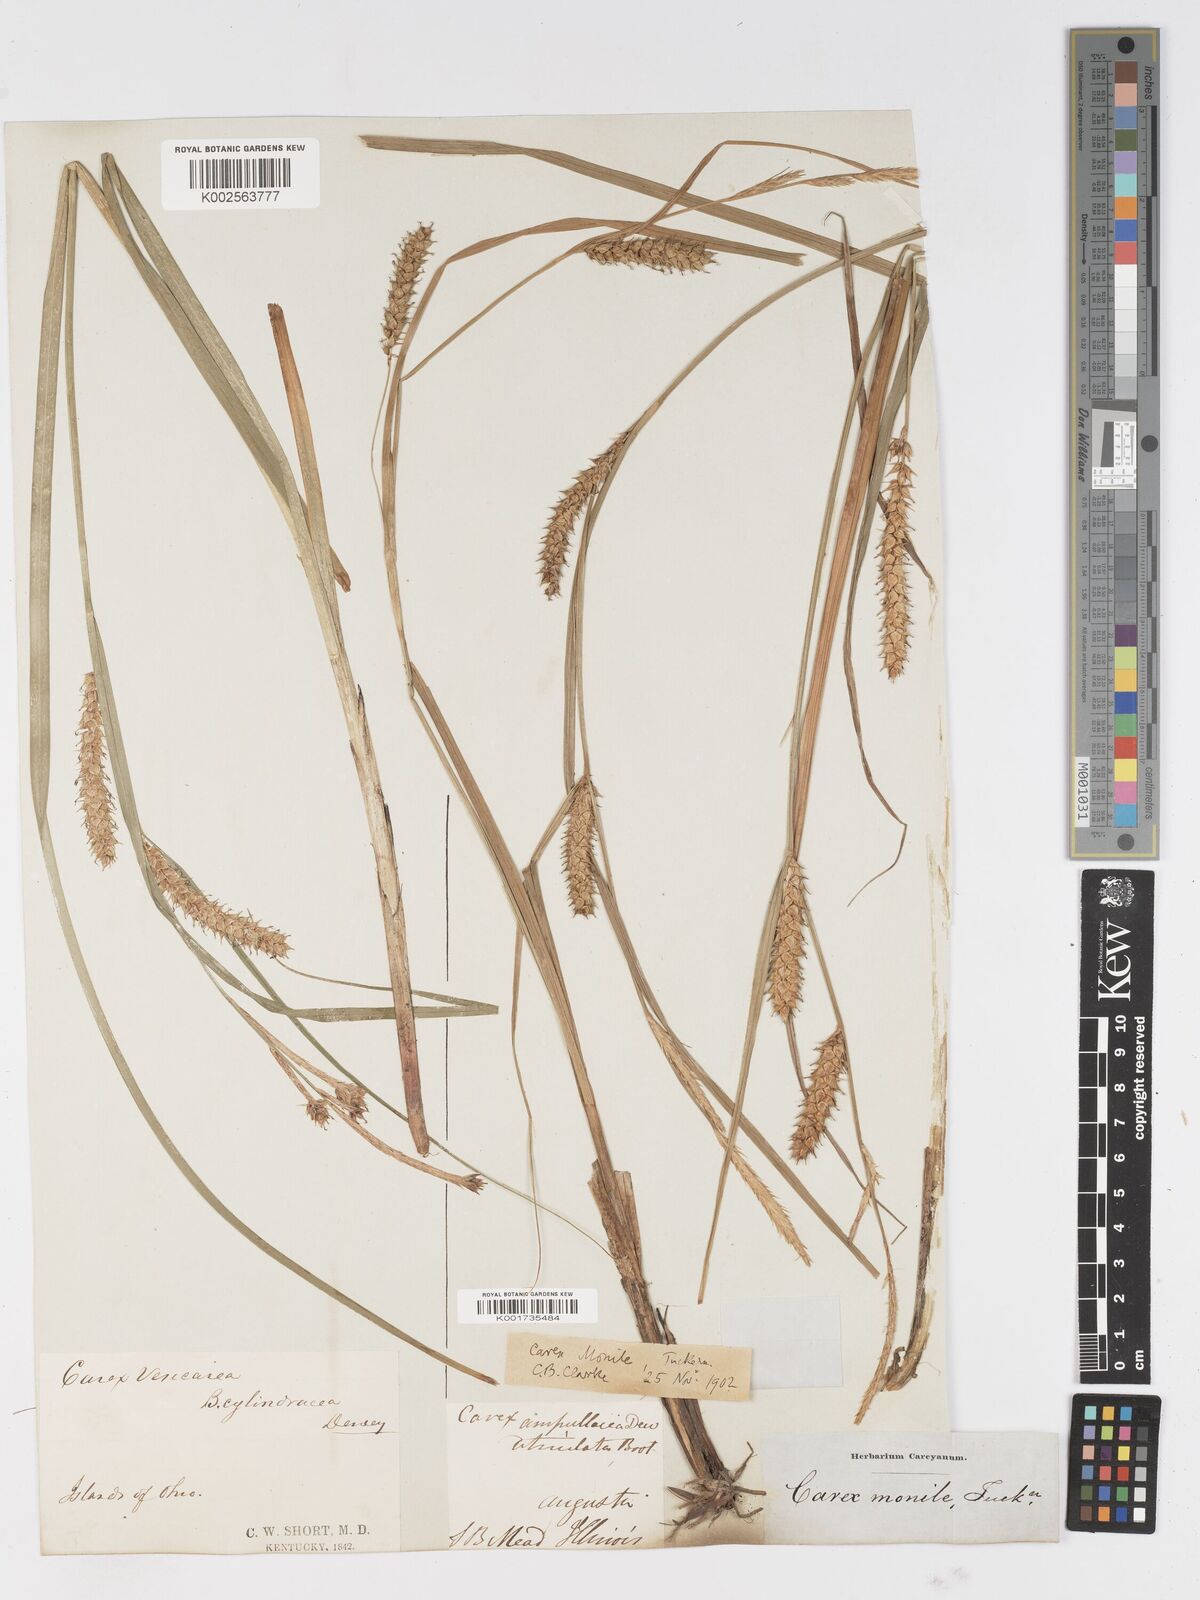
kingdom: Plantae
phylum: Tracheophyta
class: Liliopsida
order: Poales
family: Cyperaceae
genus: Carex
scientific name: Carex vesicaria
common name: Bladder-sedge
